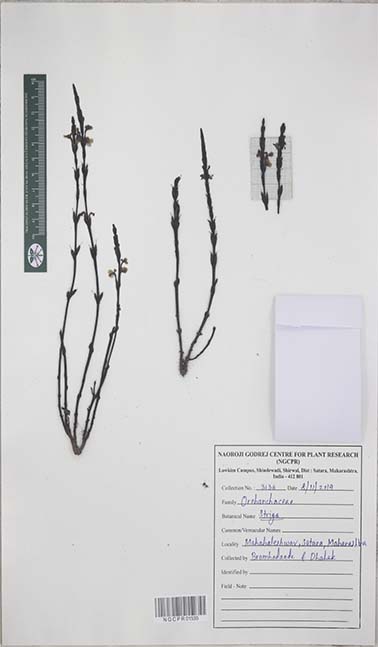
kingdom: Plantae
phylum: Tracheophyta
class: Magnoliopsida
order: Lamiales
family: Orobanchaceae
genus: Striga
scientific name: Striga
